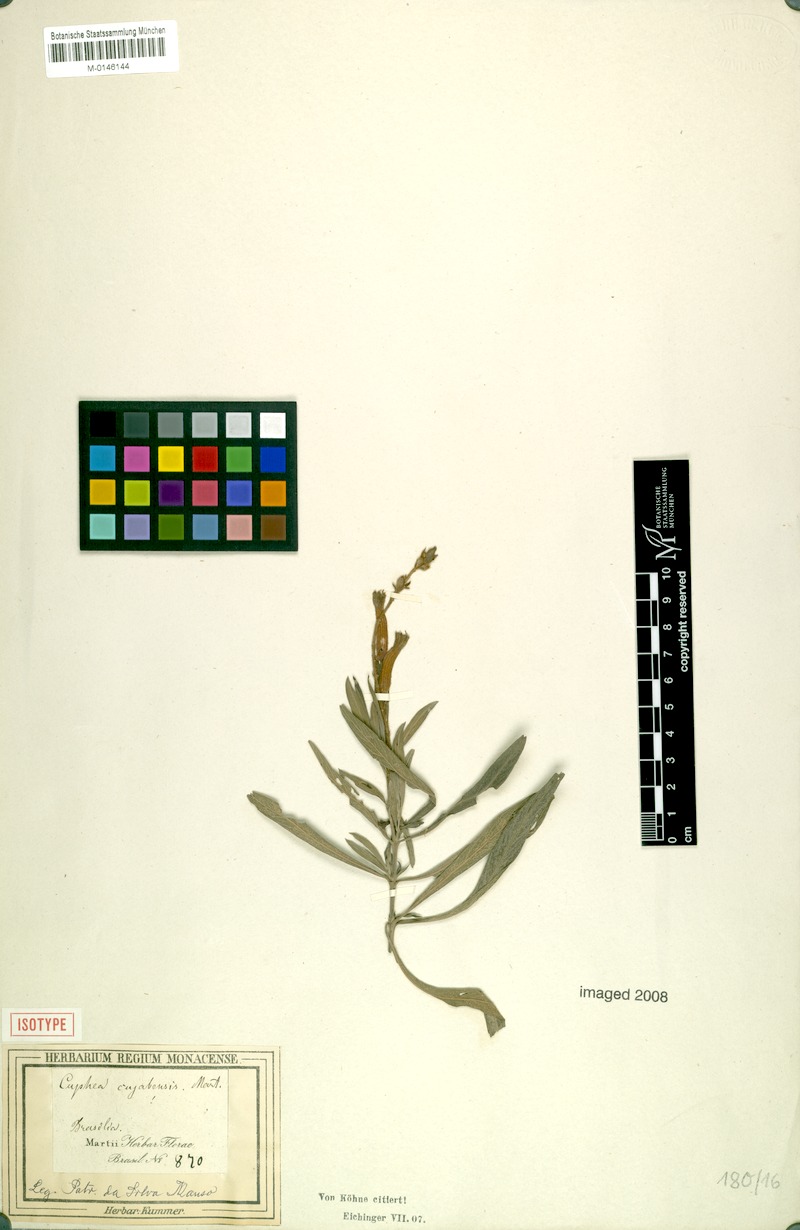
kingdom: Plantae
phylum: Tracheophyta
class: Magnoliopsida
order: Myrtales
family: Lythraceae
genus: Cuphea
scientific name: Cuphea cuiabensis
